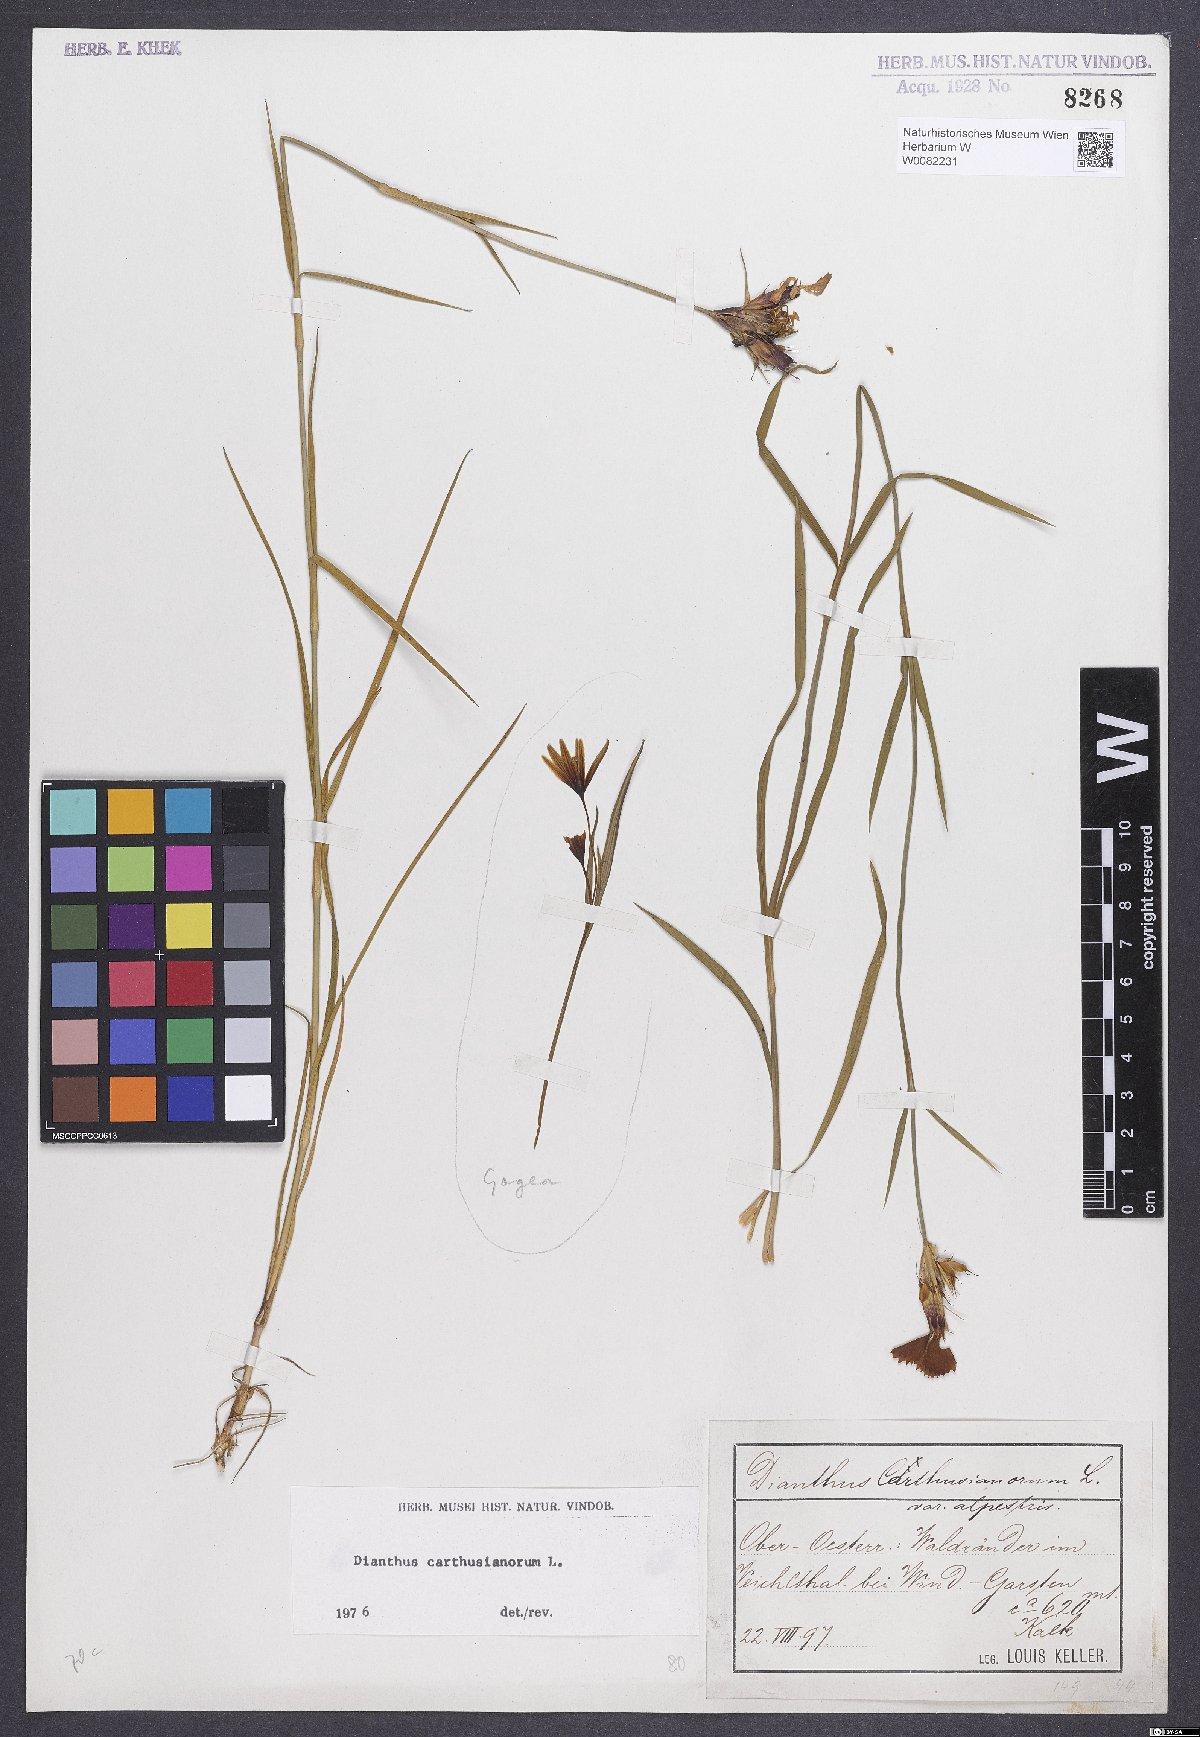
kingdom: Plantae
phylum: Tracheophyta
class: Magnoliopsida
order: Caryophyllales
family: Caryophyllaceae
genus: Dianthus
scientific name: Dianthus carthusianorum
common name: Carthusian pink
